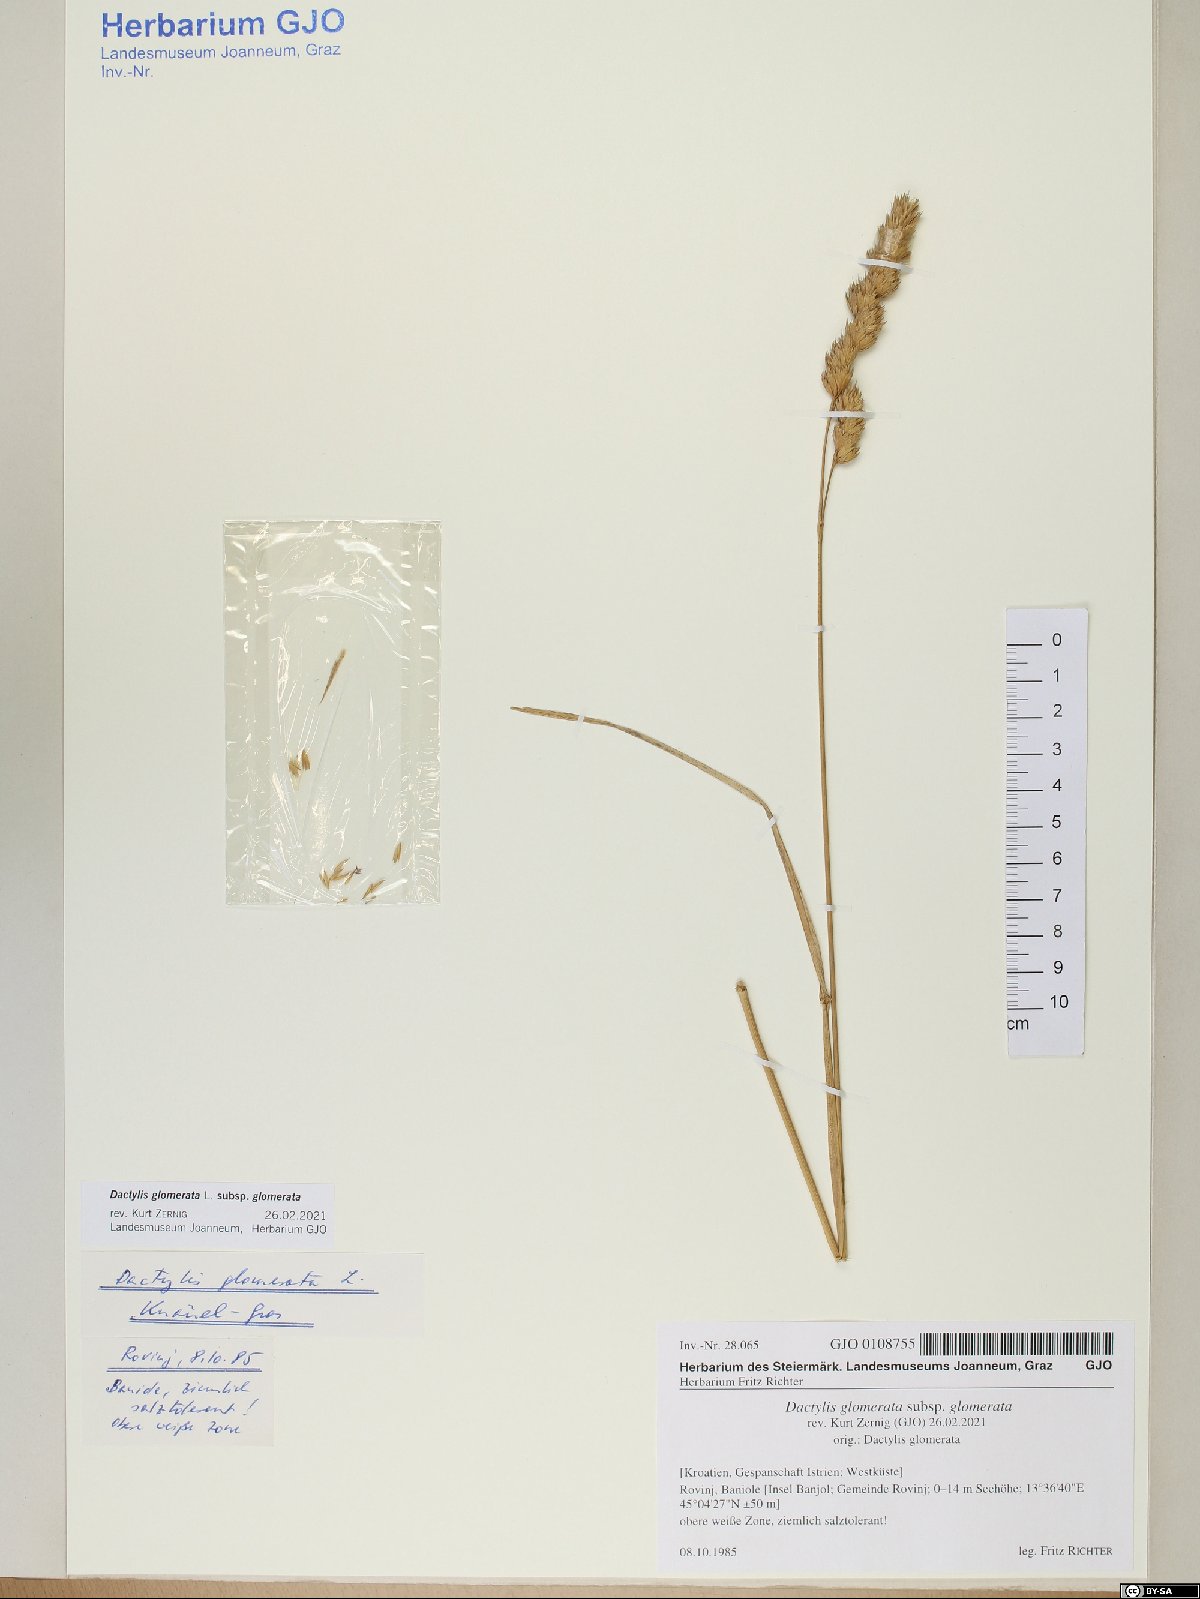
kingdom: Plantae
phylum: Tracheophyta
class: Liliopsida
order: Poales
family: Poaceae
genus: Dactylis
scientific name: Dactylis glomerata
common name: Orchardgrass
